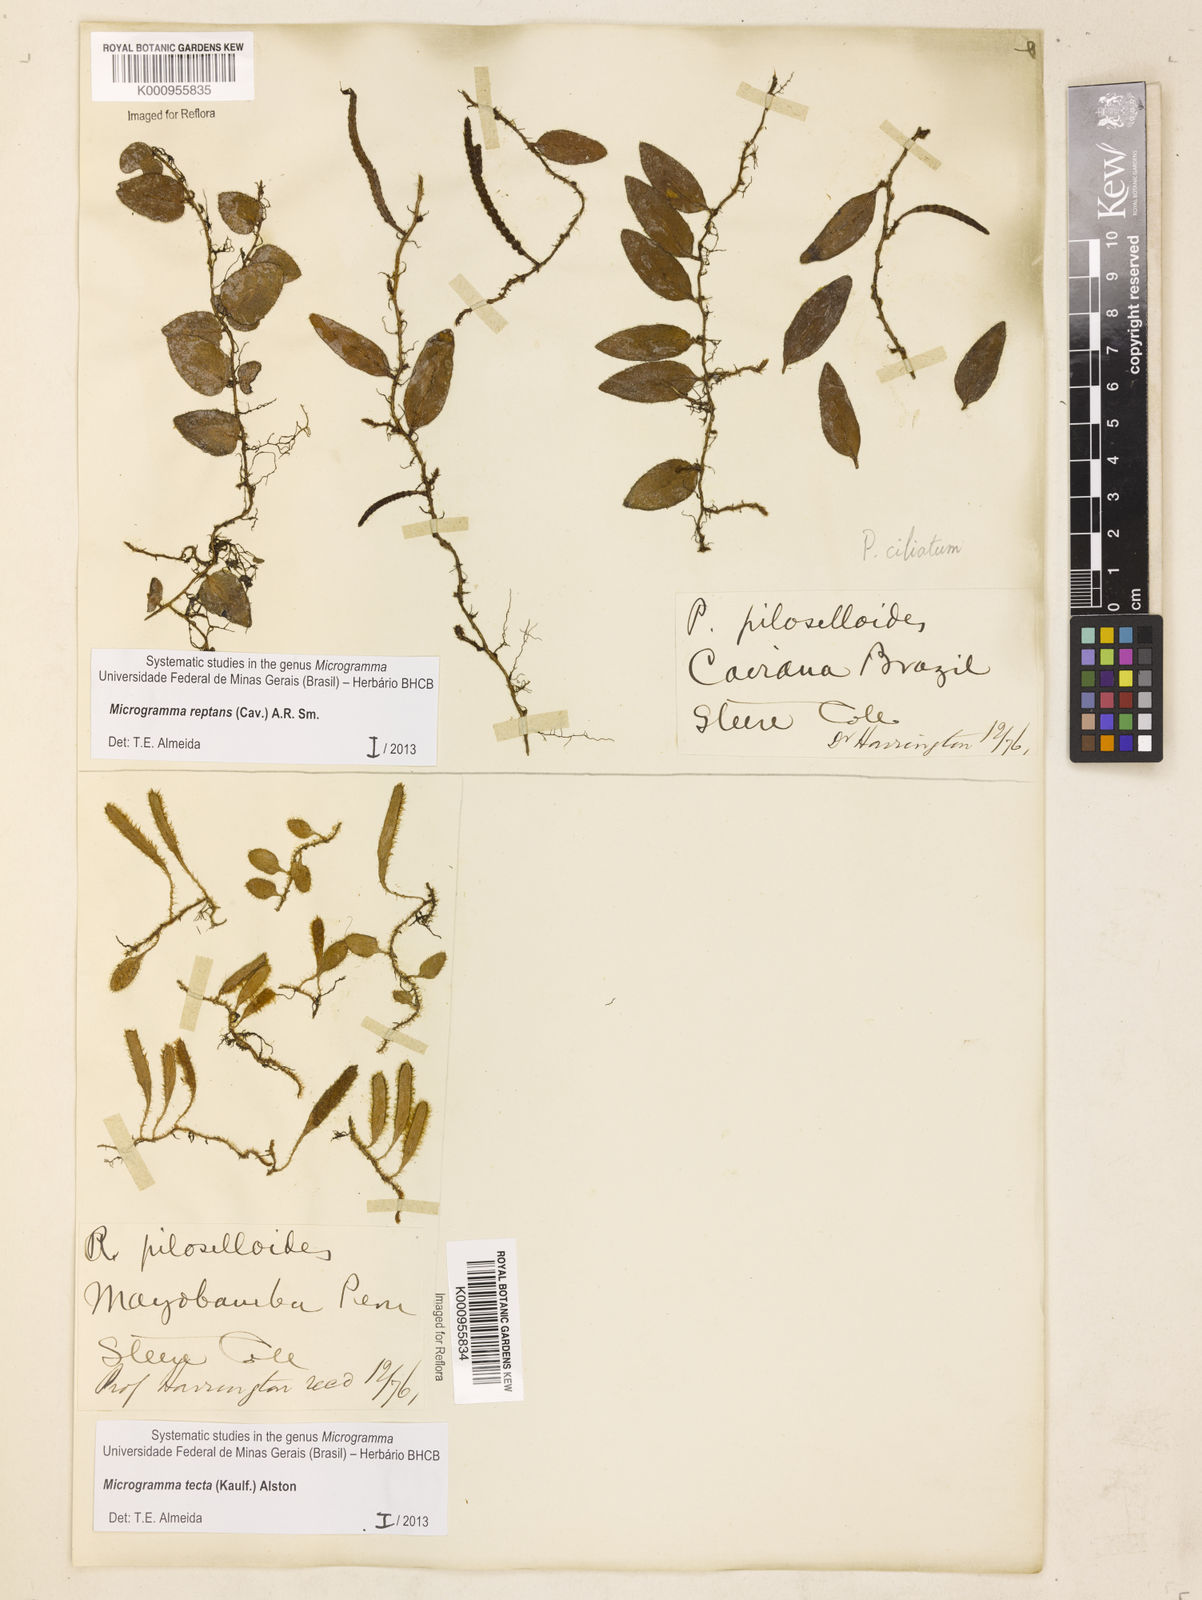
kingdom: Plantae
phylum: Tracheophyta
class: Polypodiopsida
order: Polypodiales
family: Polypodiaceae
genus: Microgramma
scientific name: Microgramma tecta
